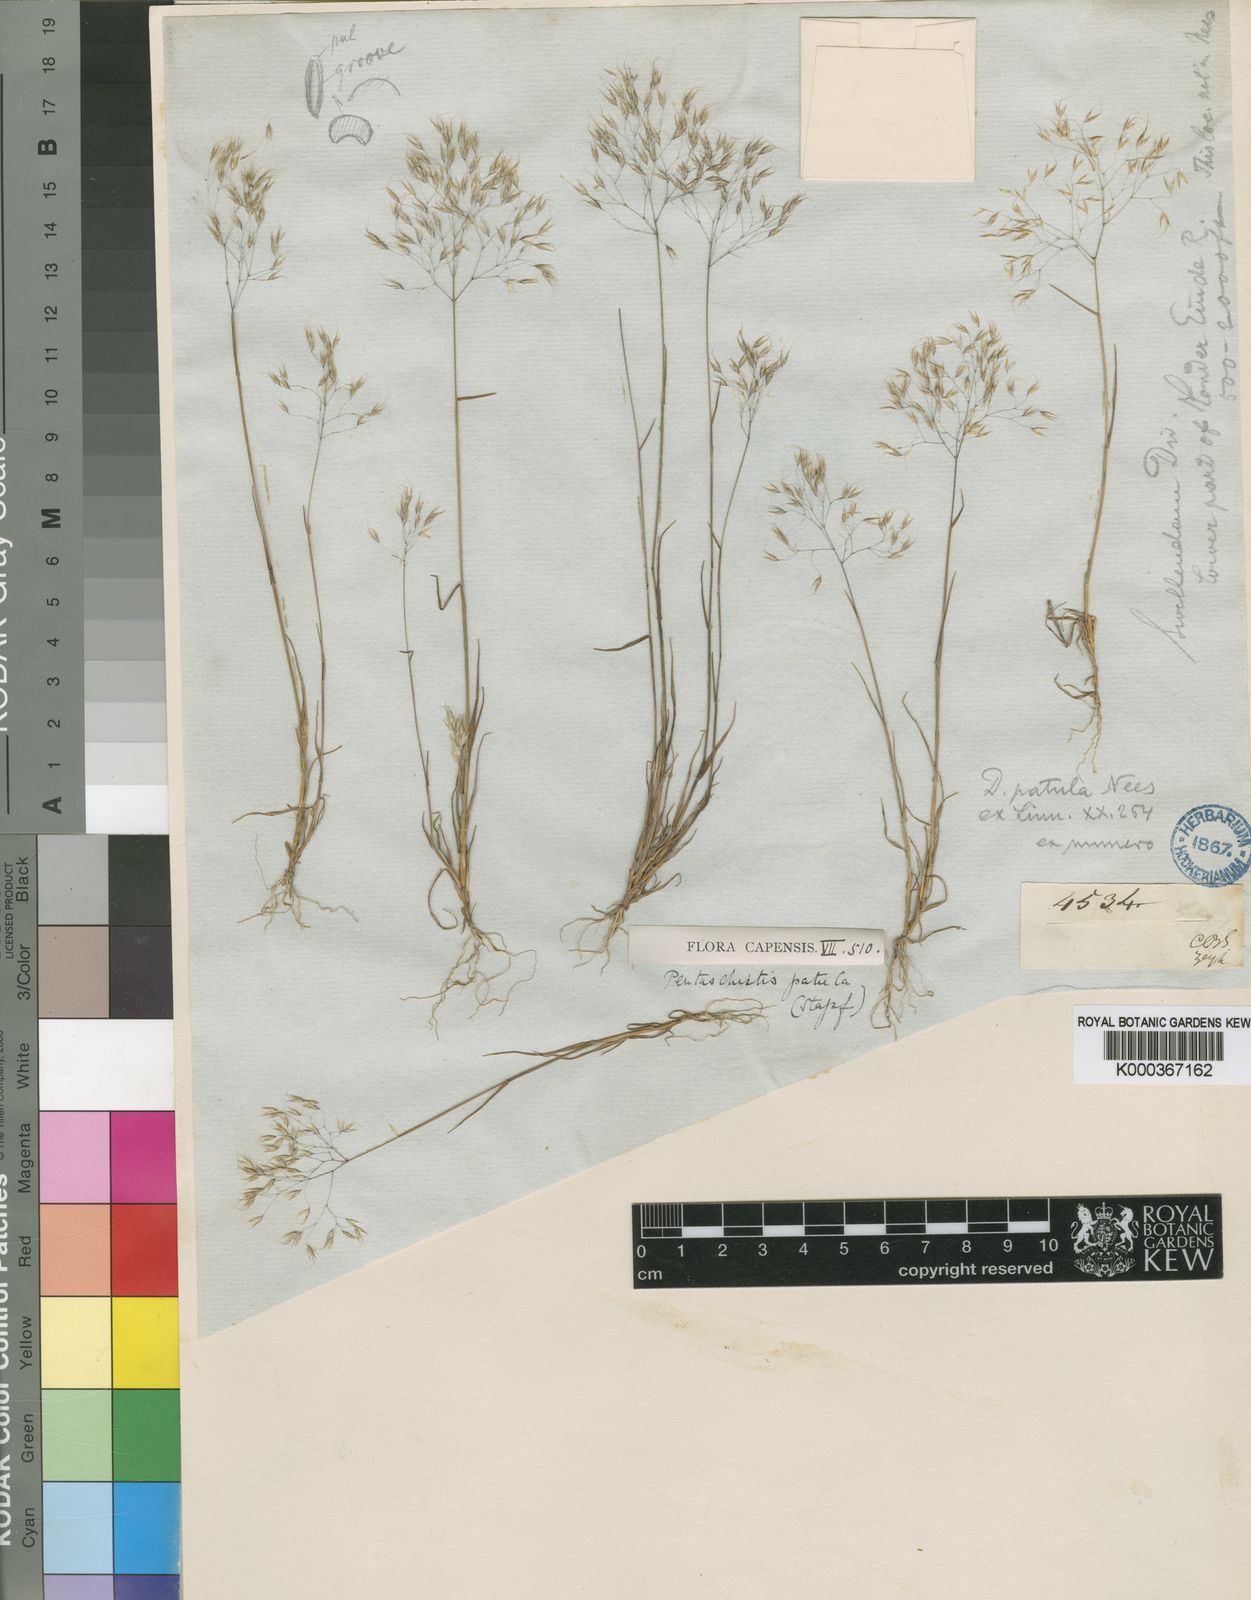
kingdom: Plantae
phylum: Tracheophyta
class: Liliopsida
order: Poales
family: Poaceae
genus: Pentameris
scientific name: Pentameris patula
